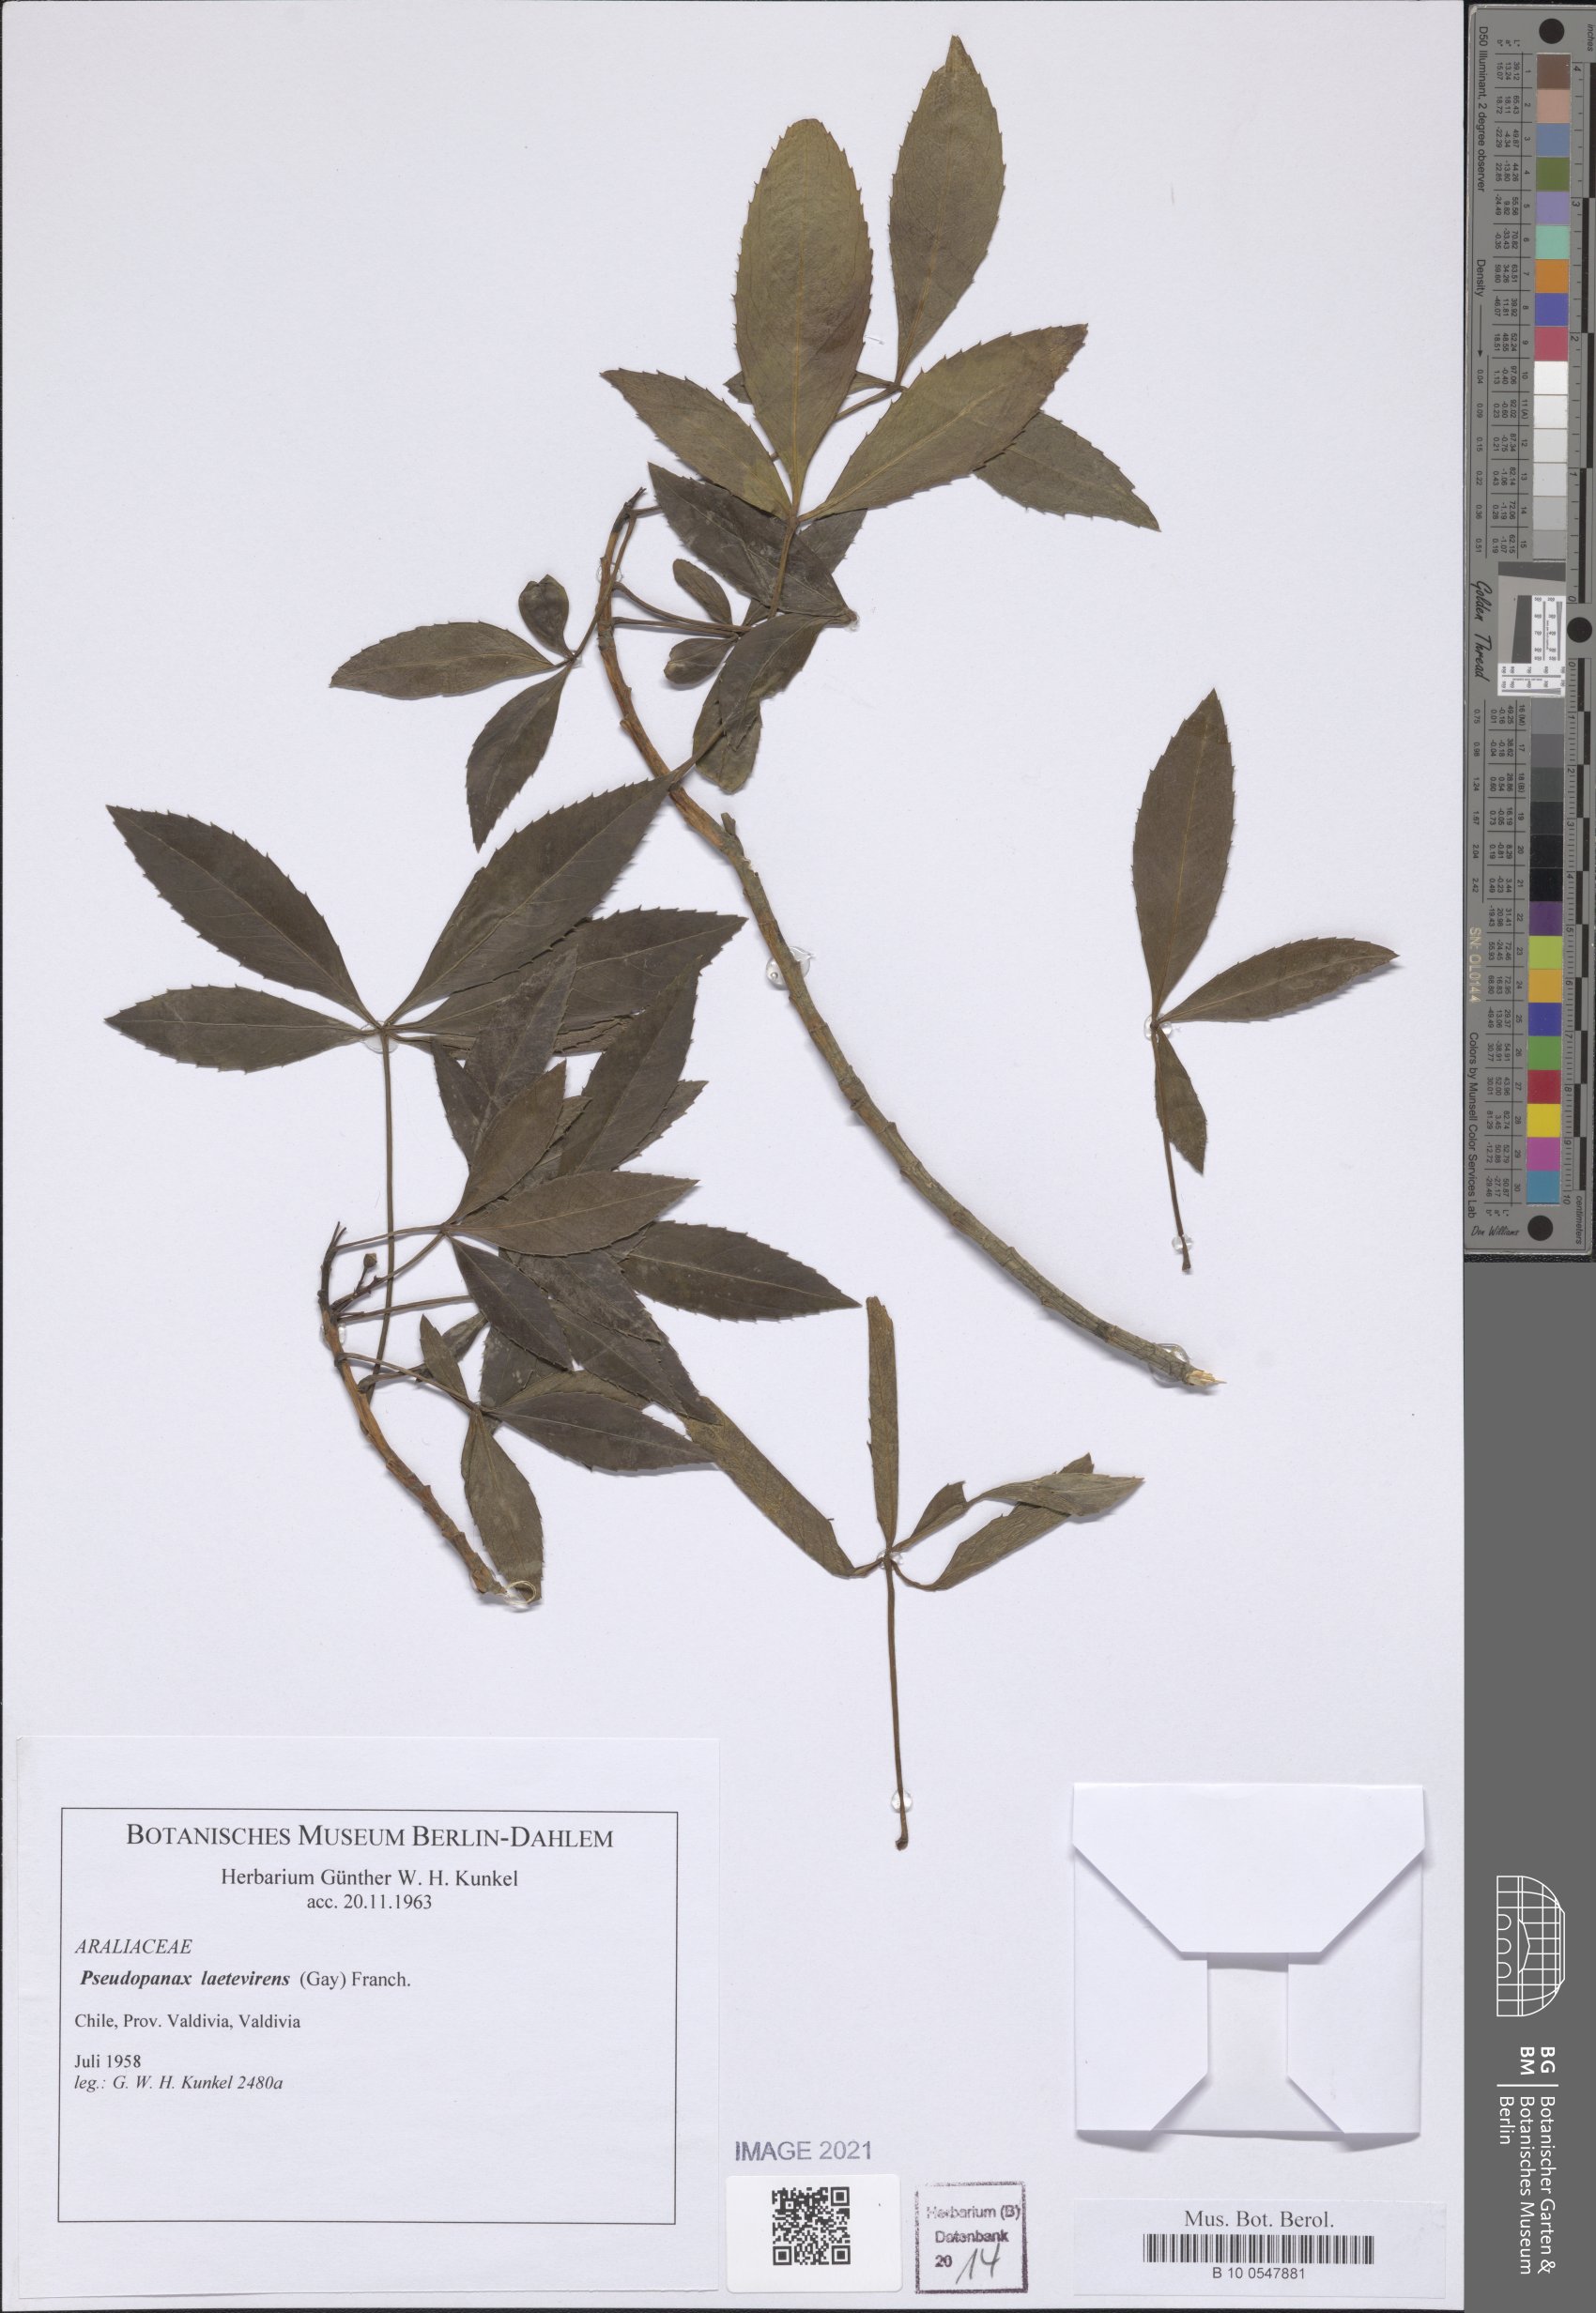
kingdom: Plantae
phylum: Tracheophyta
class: Magnoliopsida
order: Apiales
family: Araliaceae
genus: Raukaua
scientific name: Raukaua laetevirens
